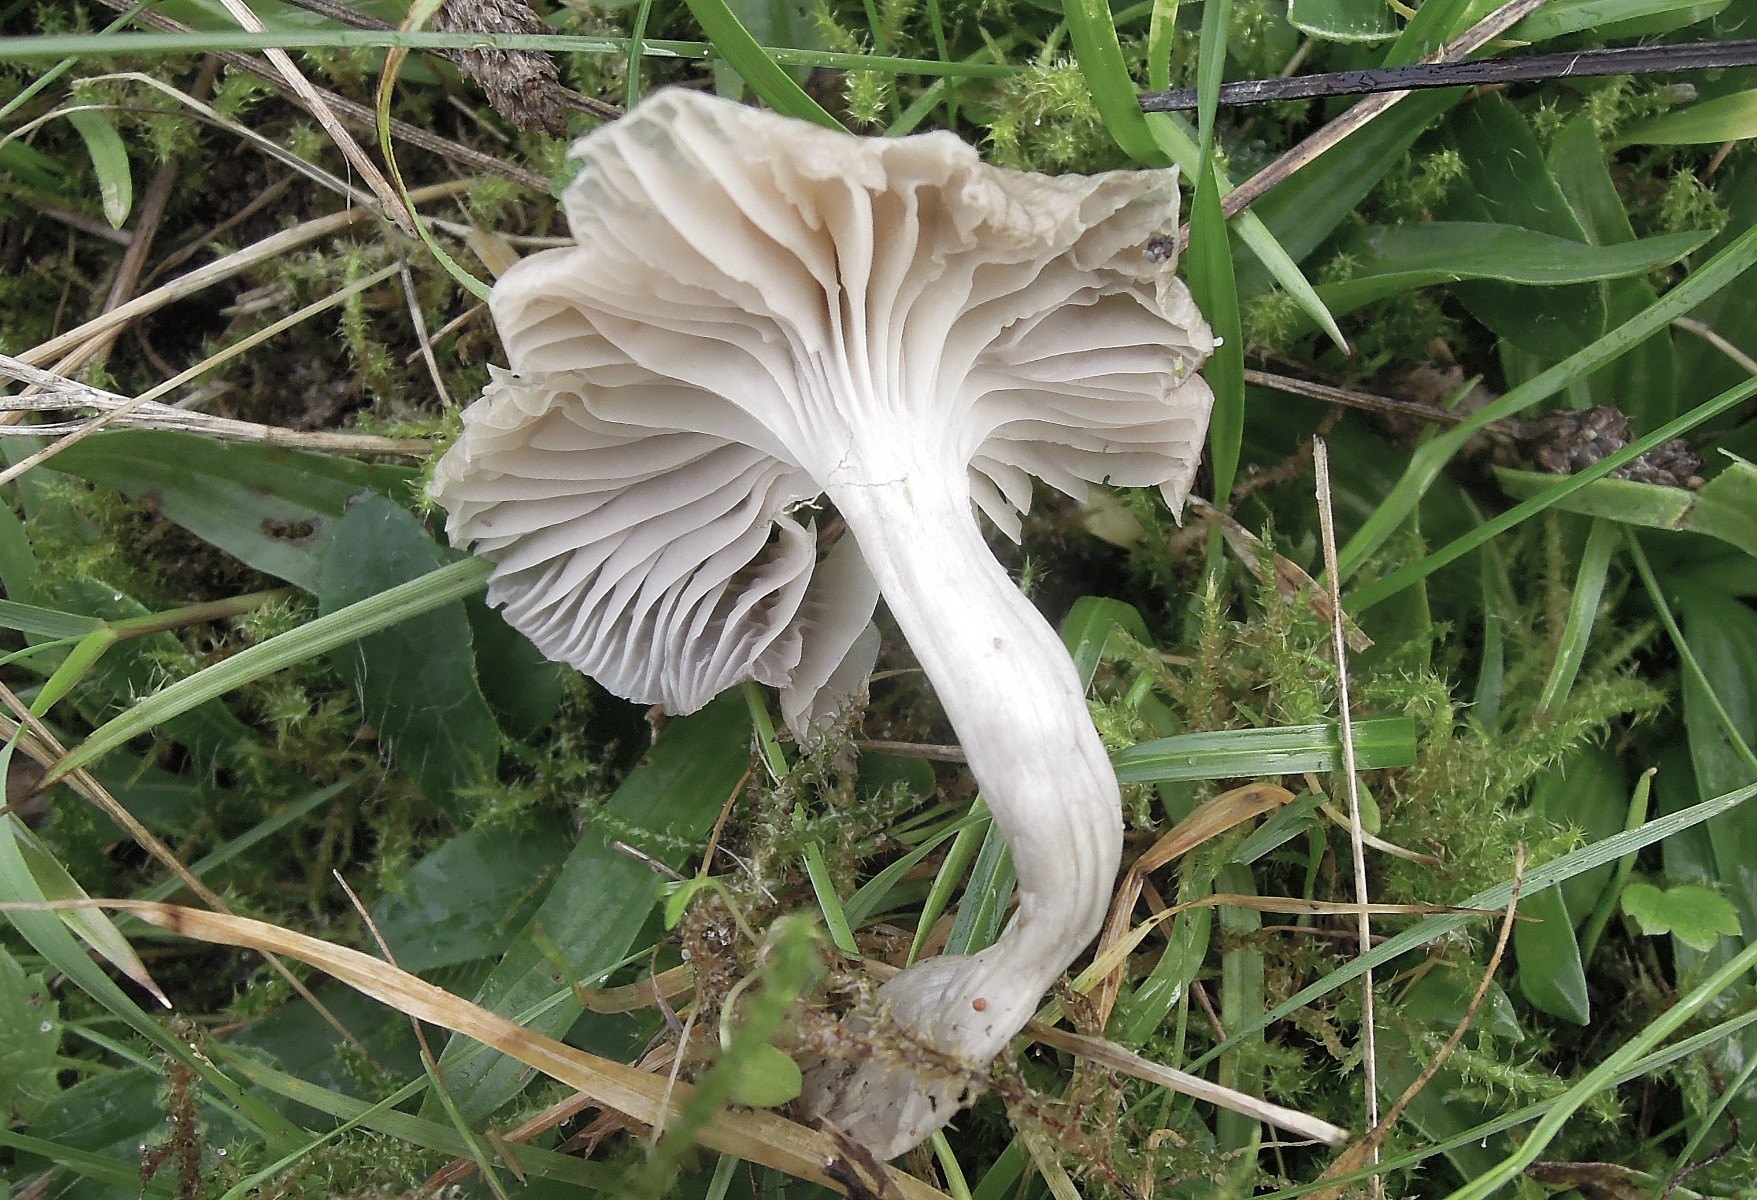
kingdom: Fungi
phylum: Basidiomycota
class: Agaricomycetes
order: Agaricales
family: Hygrophoraceae
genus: Cuphophyllus
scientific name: Cuphophyllus flavipes
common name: gulfodet vokshat
